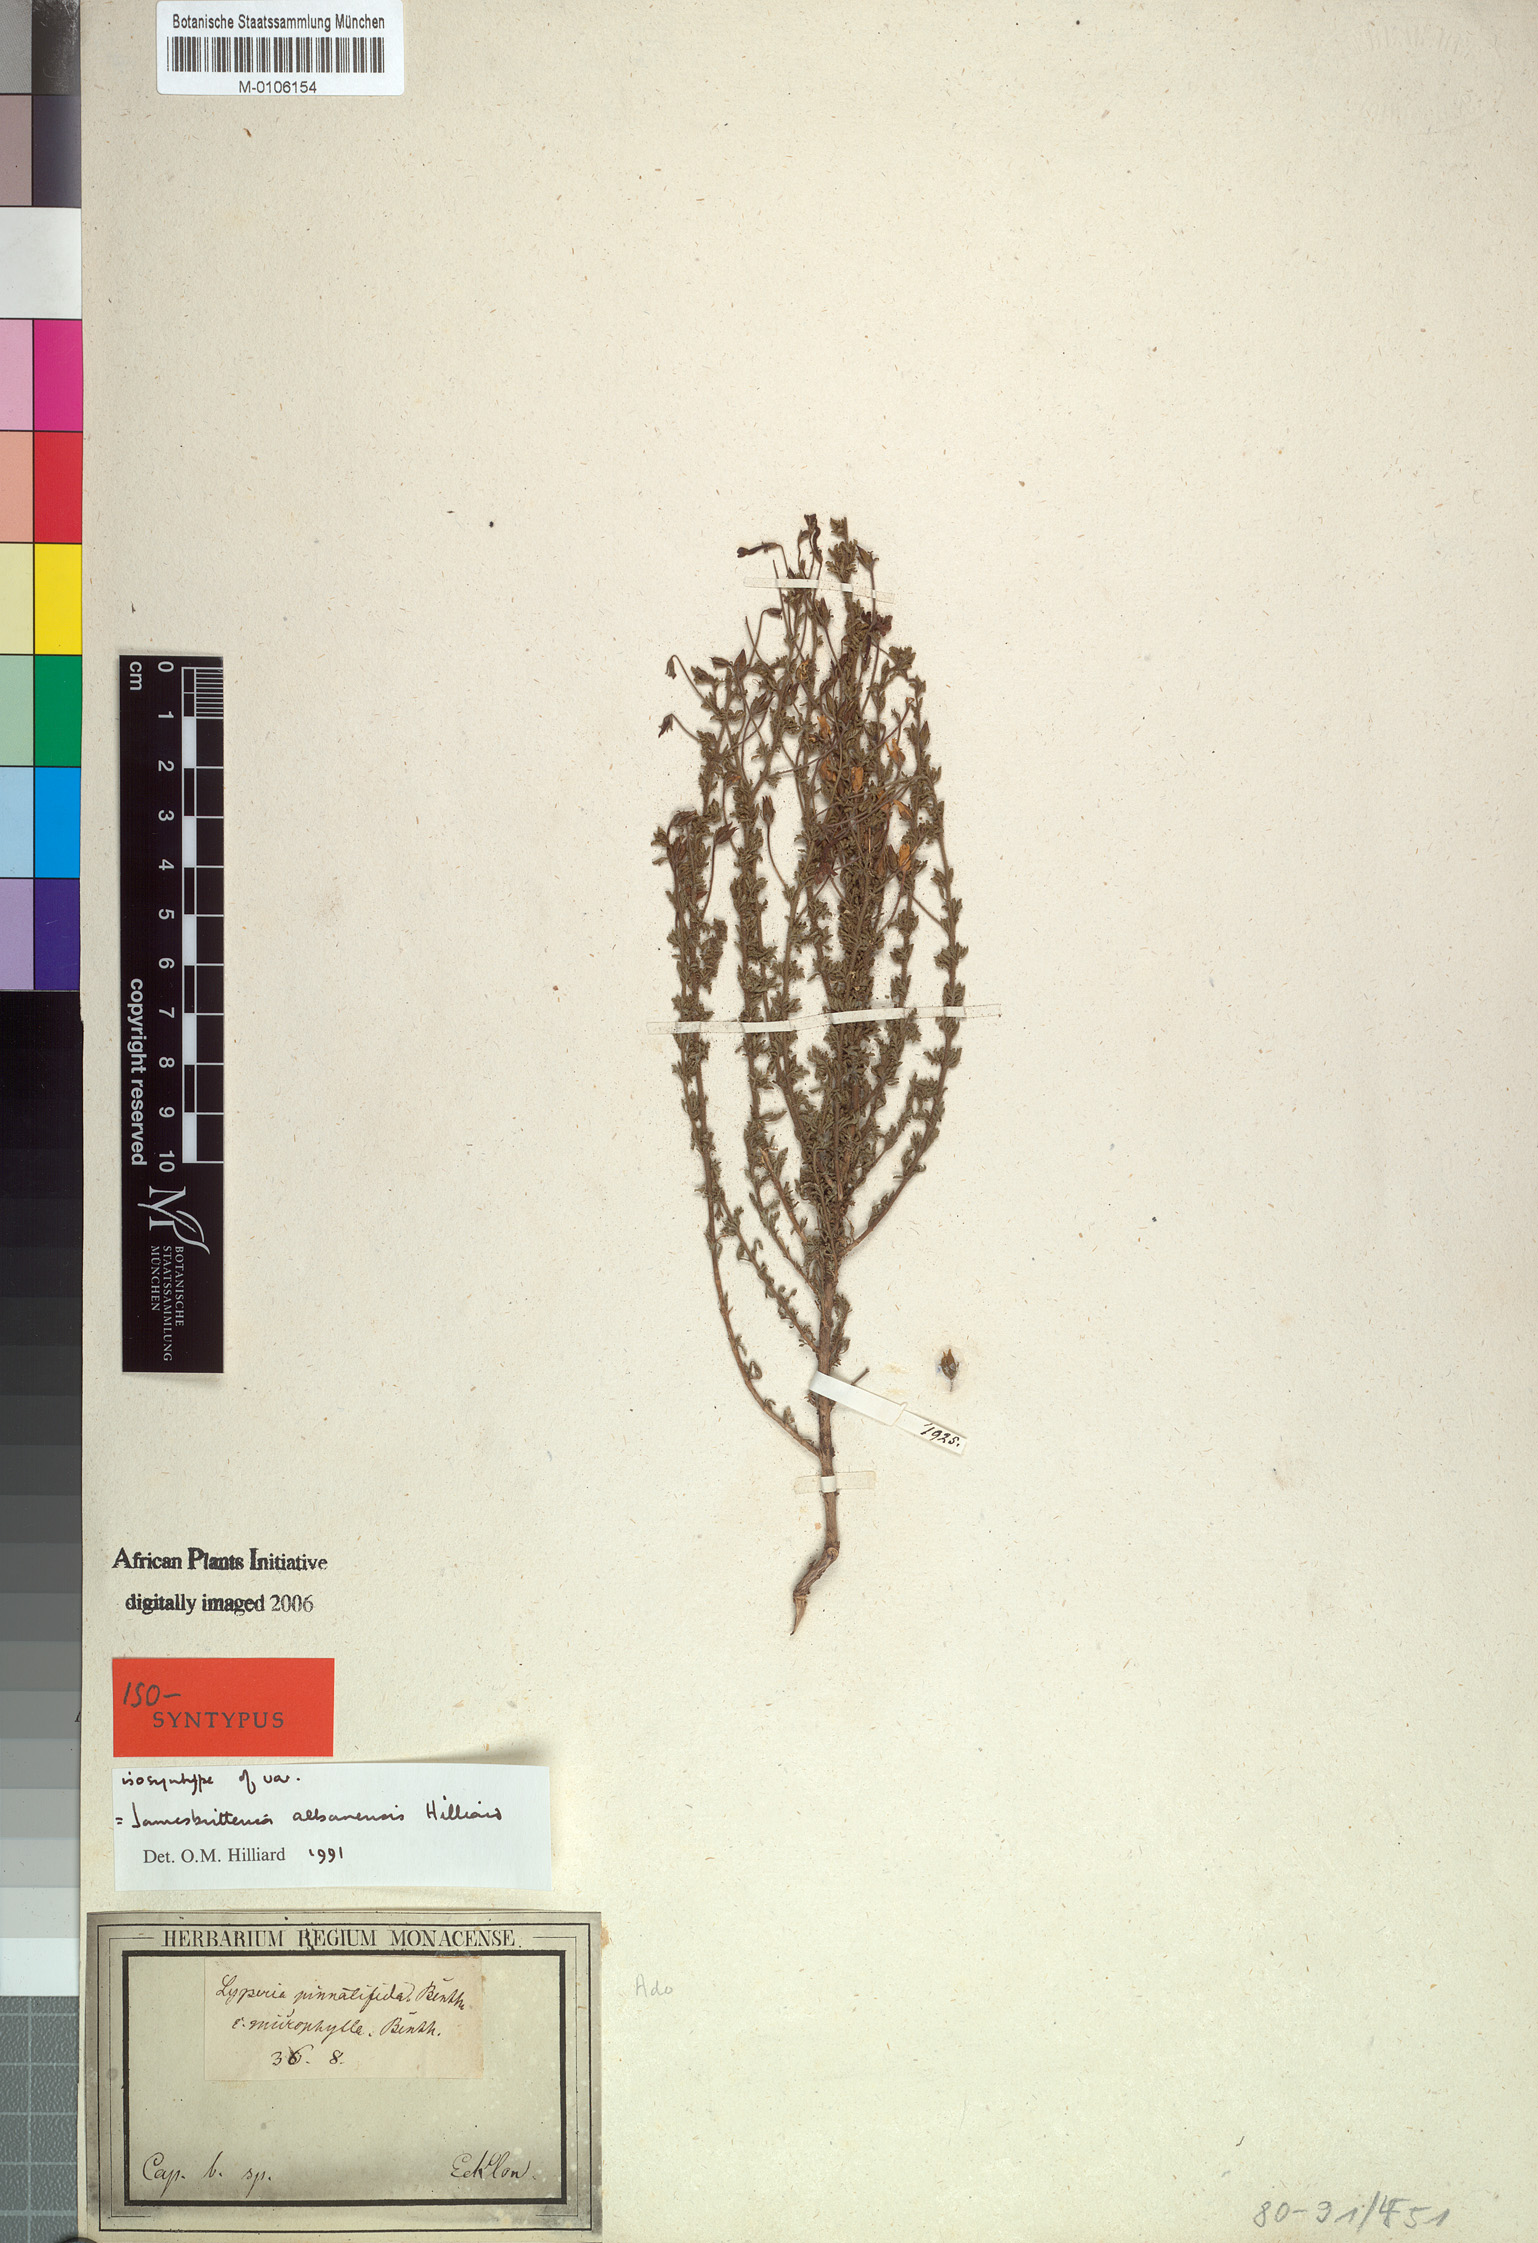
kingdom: Plantae
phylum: Tracheophyta
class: Magnoliopsida
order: Lamiales
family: Scrophulariaceae
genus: Jamesbrittenia
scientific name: Jamesbrittenia albanensis
